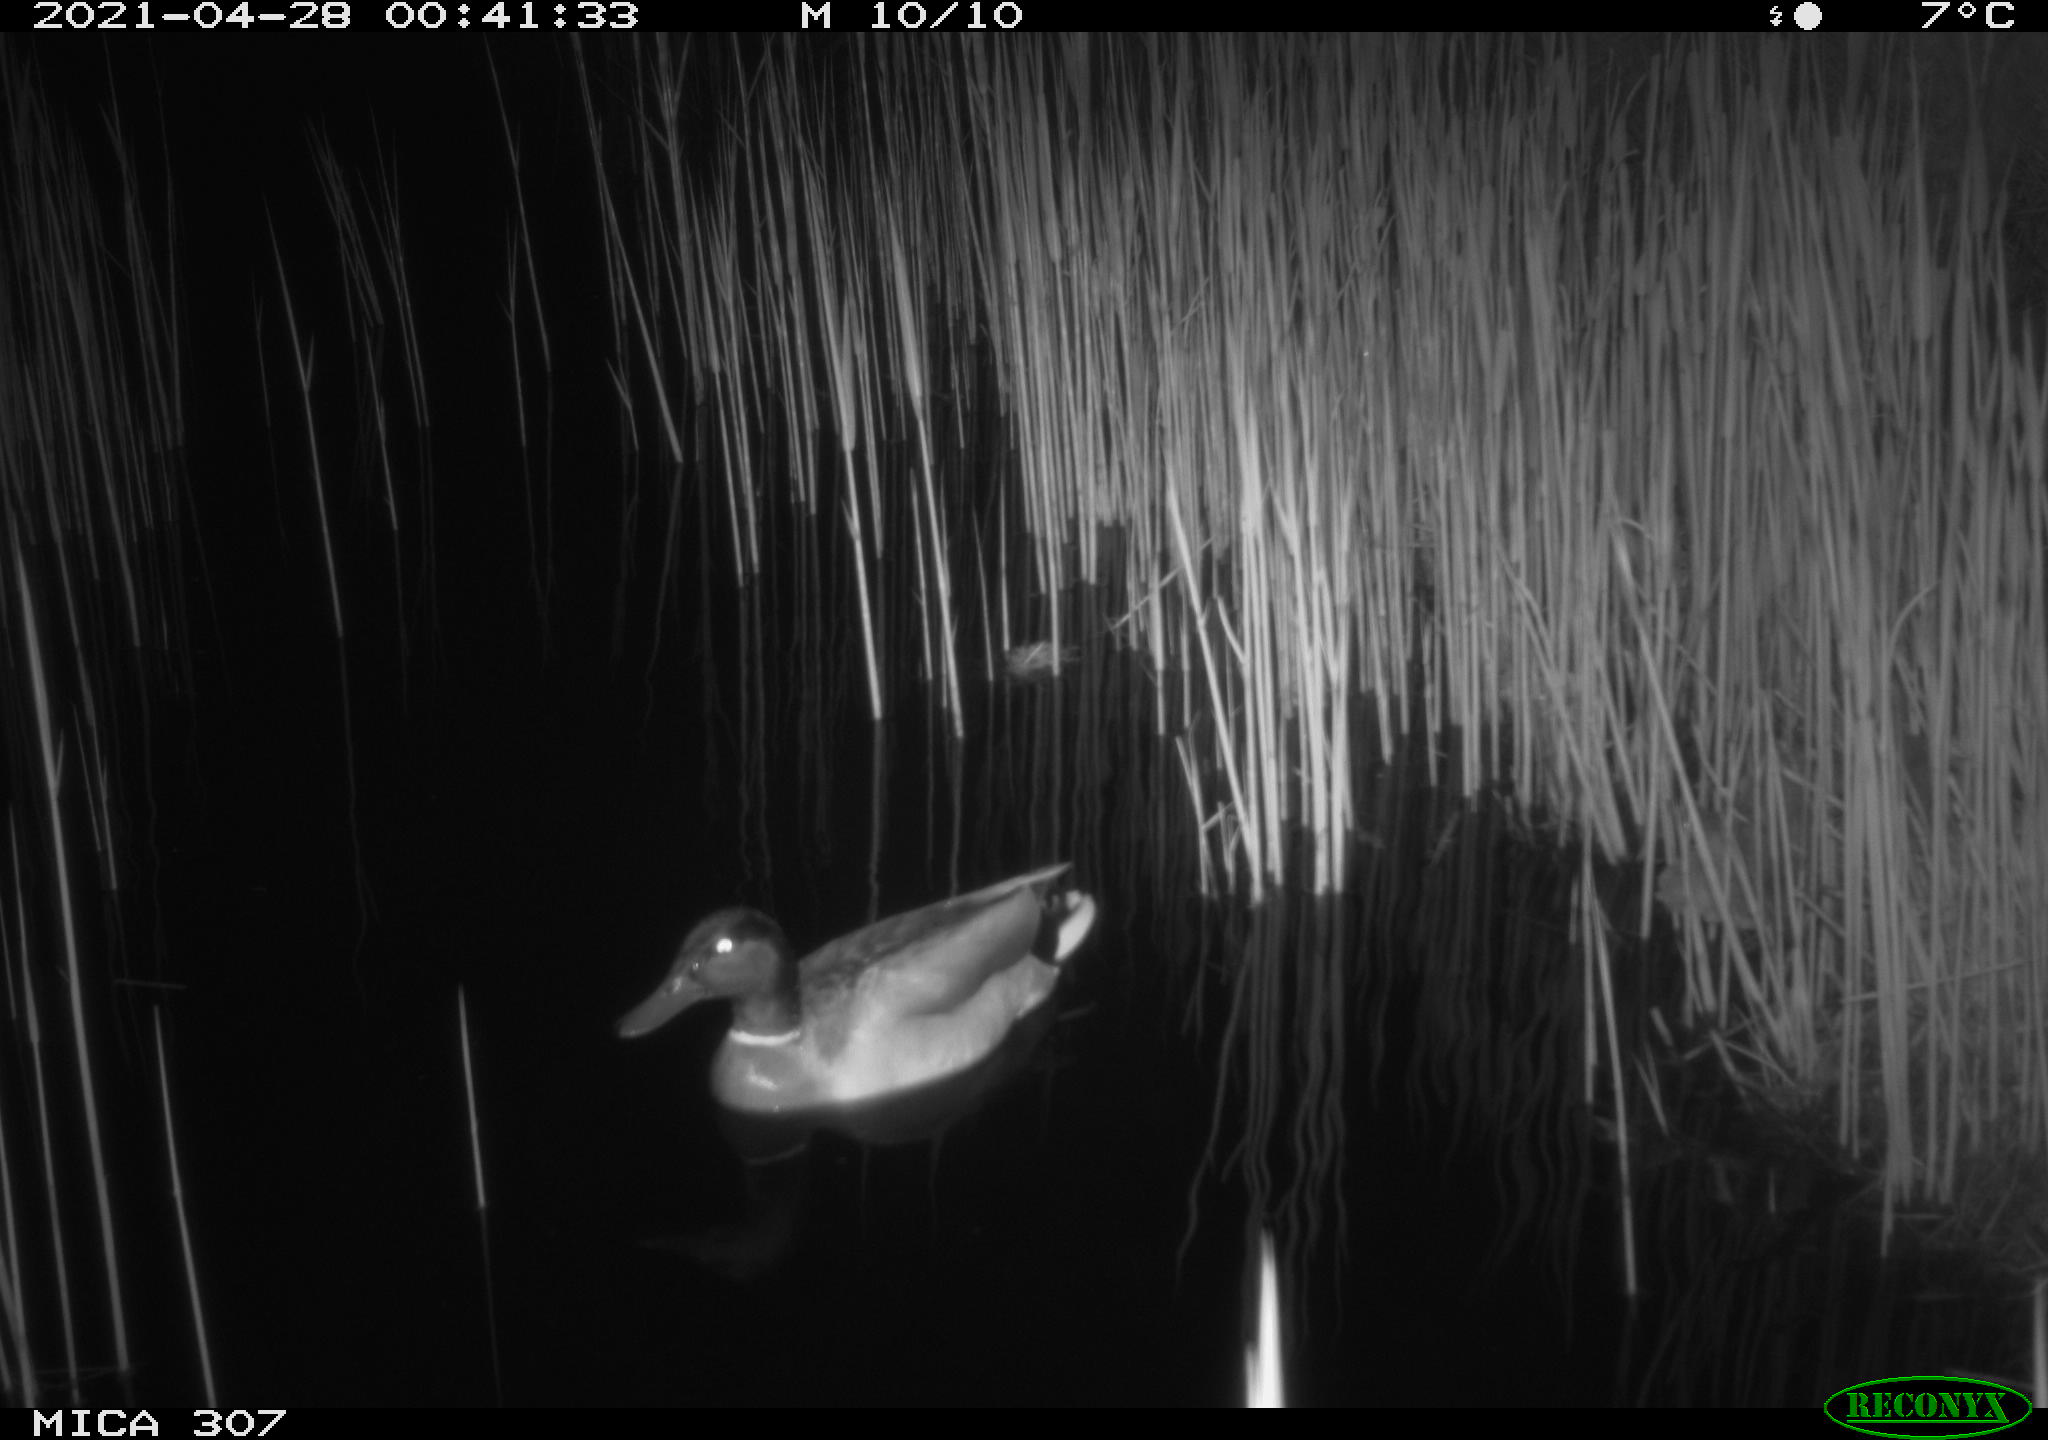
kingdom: Animalia
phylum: Chordata
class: Aves
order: Gruiformes
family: Rallidae
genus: Gallinula
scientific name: Gallinula chloropus
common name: Common moorhen
